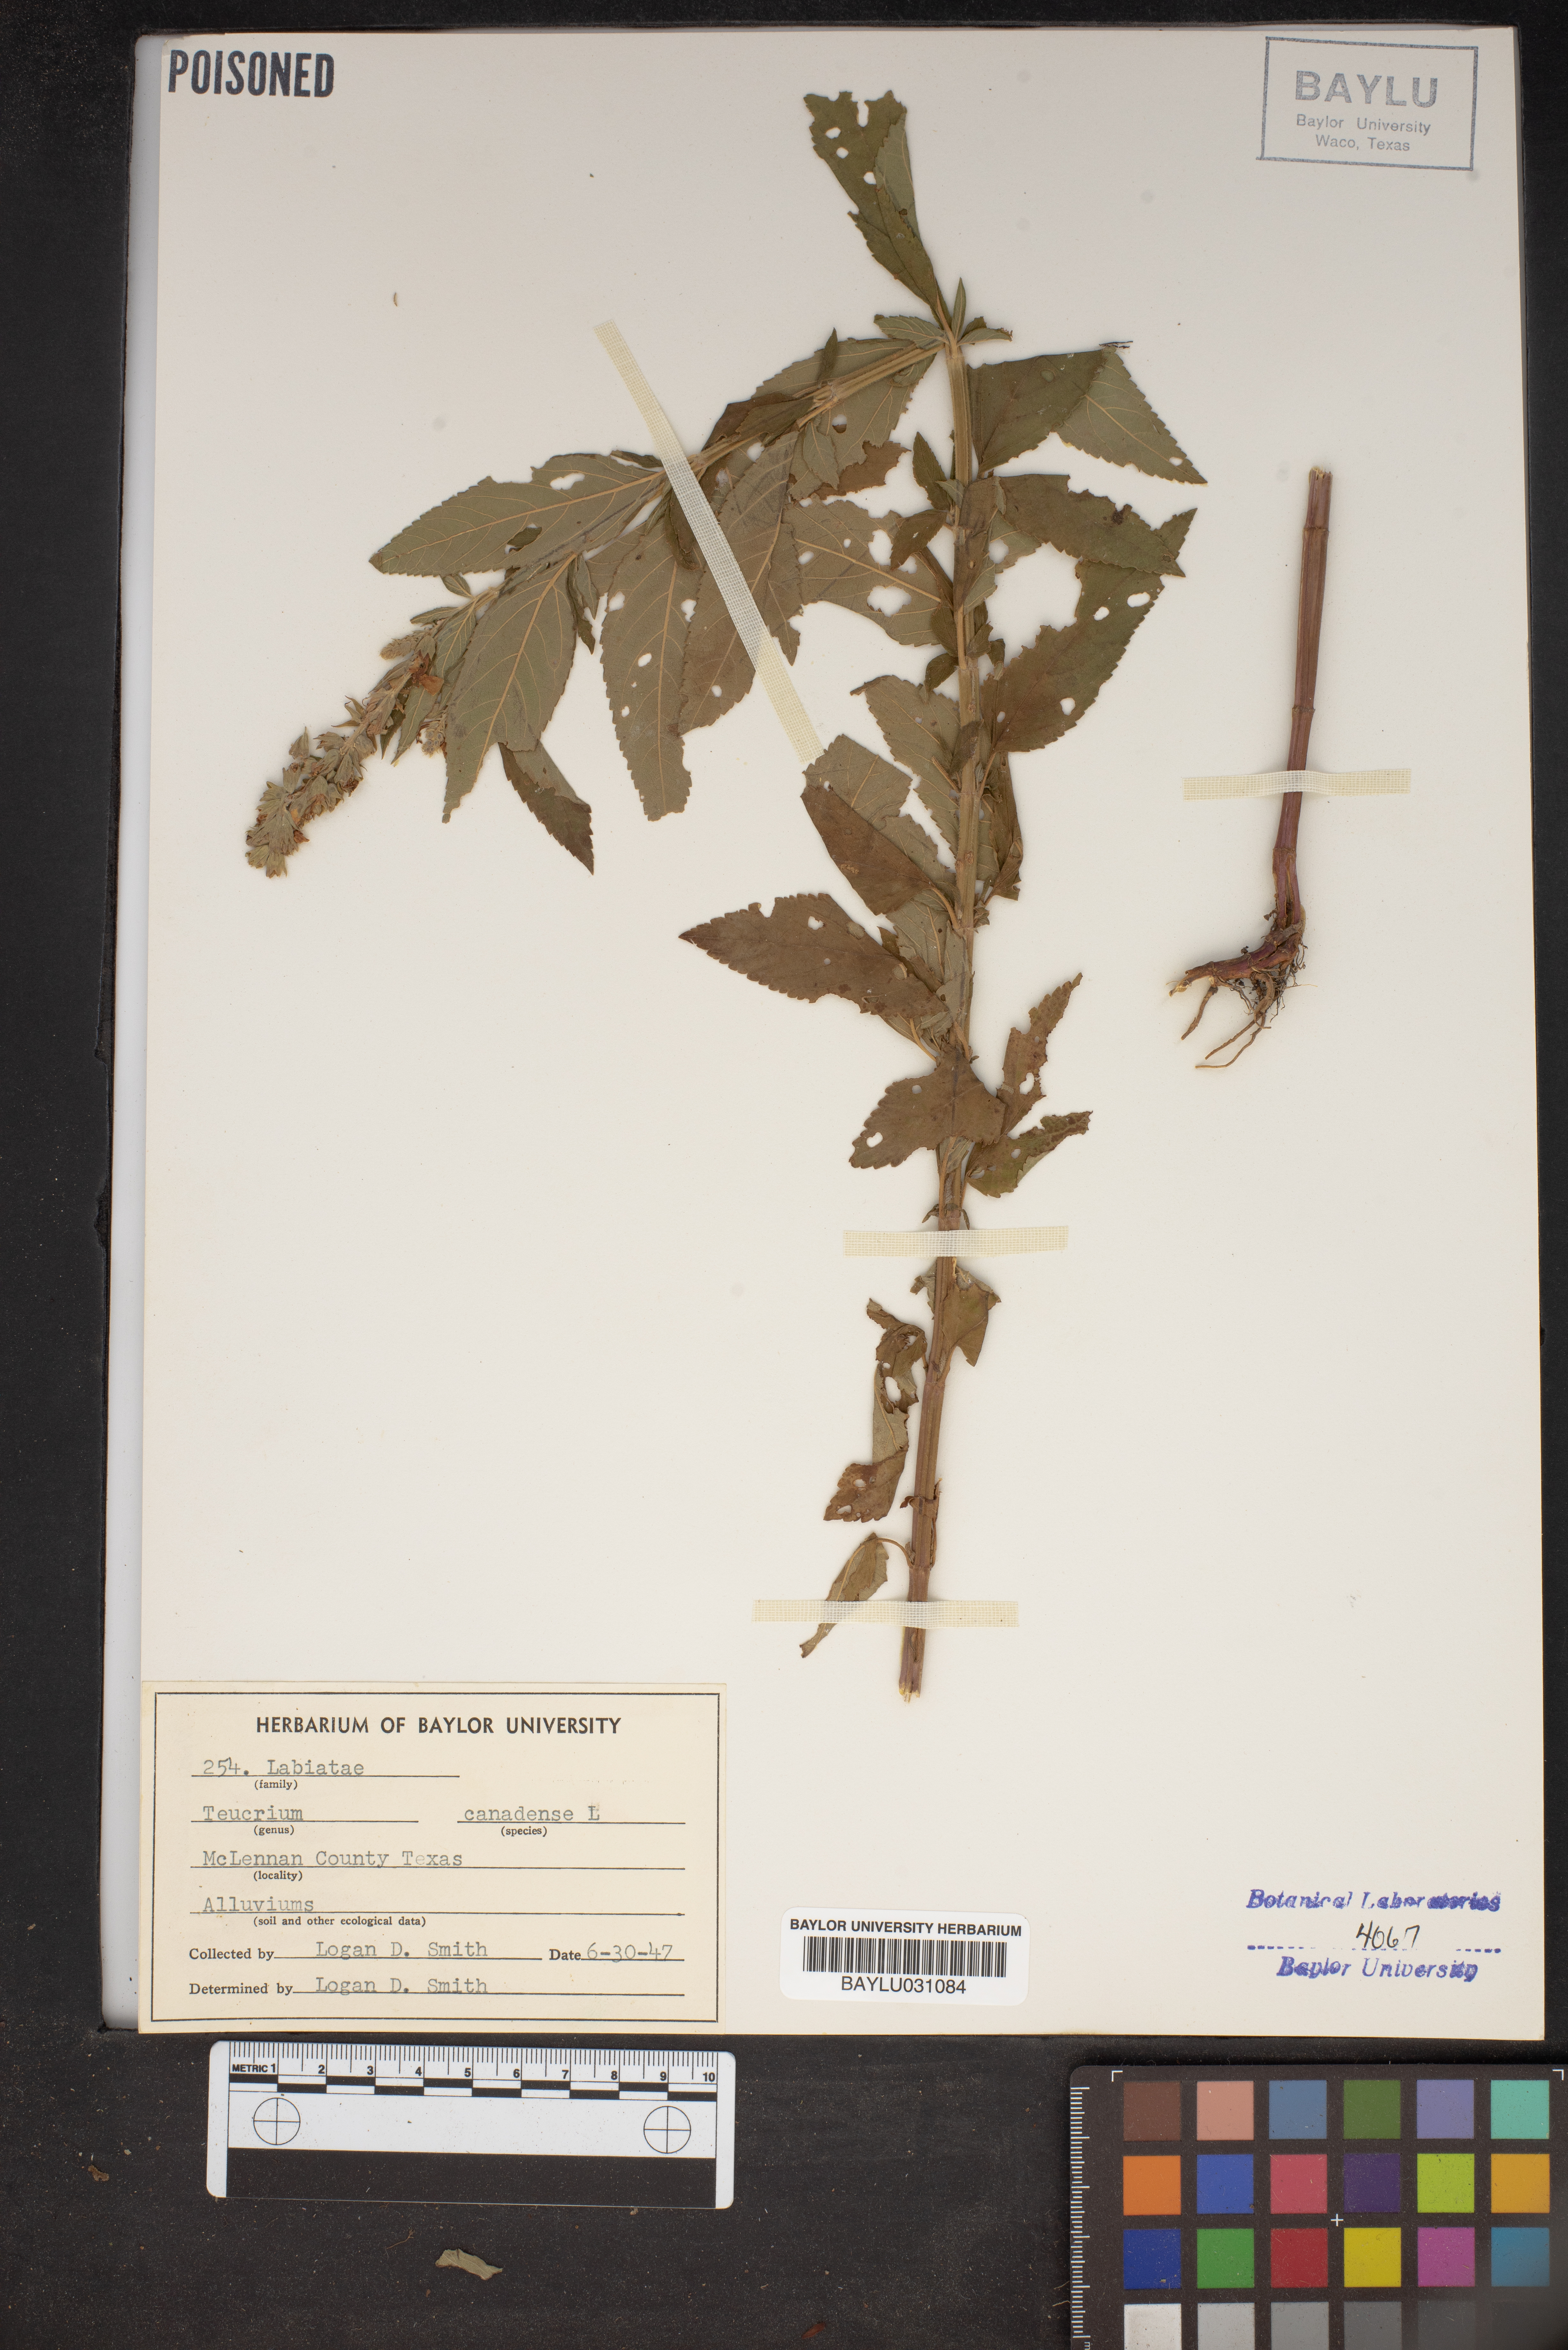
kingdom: Plantae
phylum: Tracheophyta
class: Magnoliopsida
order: Lamiales
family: Lamiaceae
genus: Teucrium
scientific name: Teucrium canadense
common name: American germander
